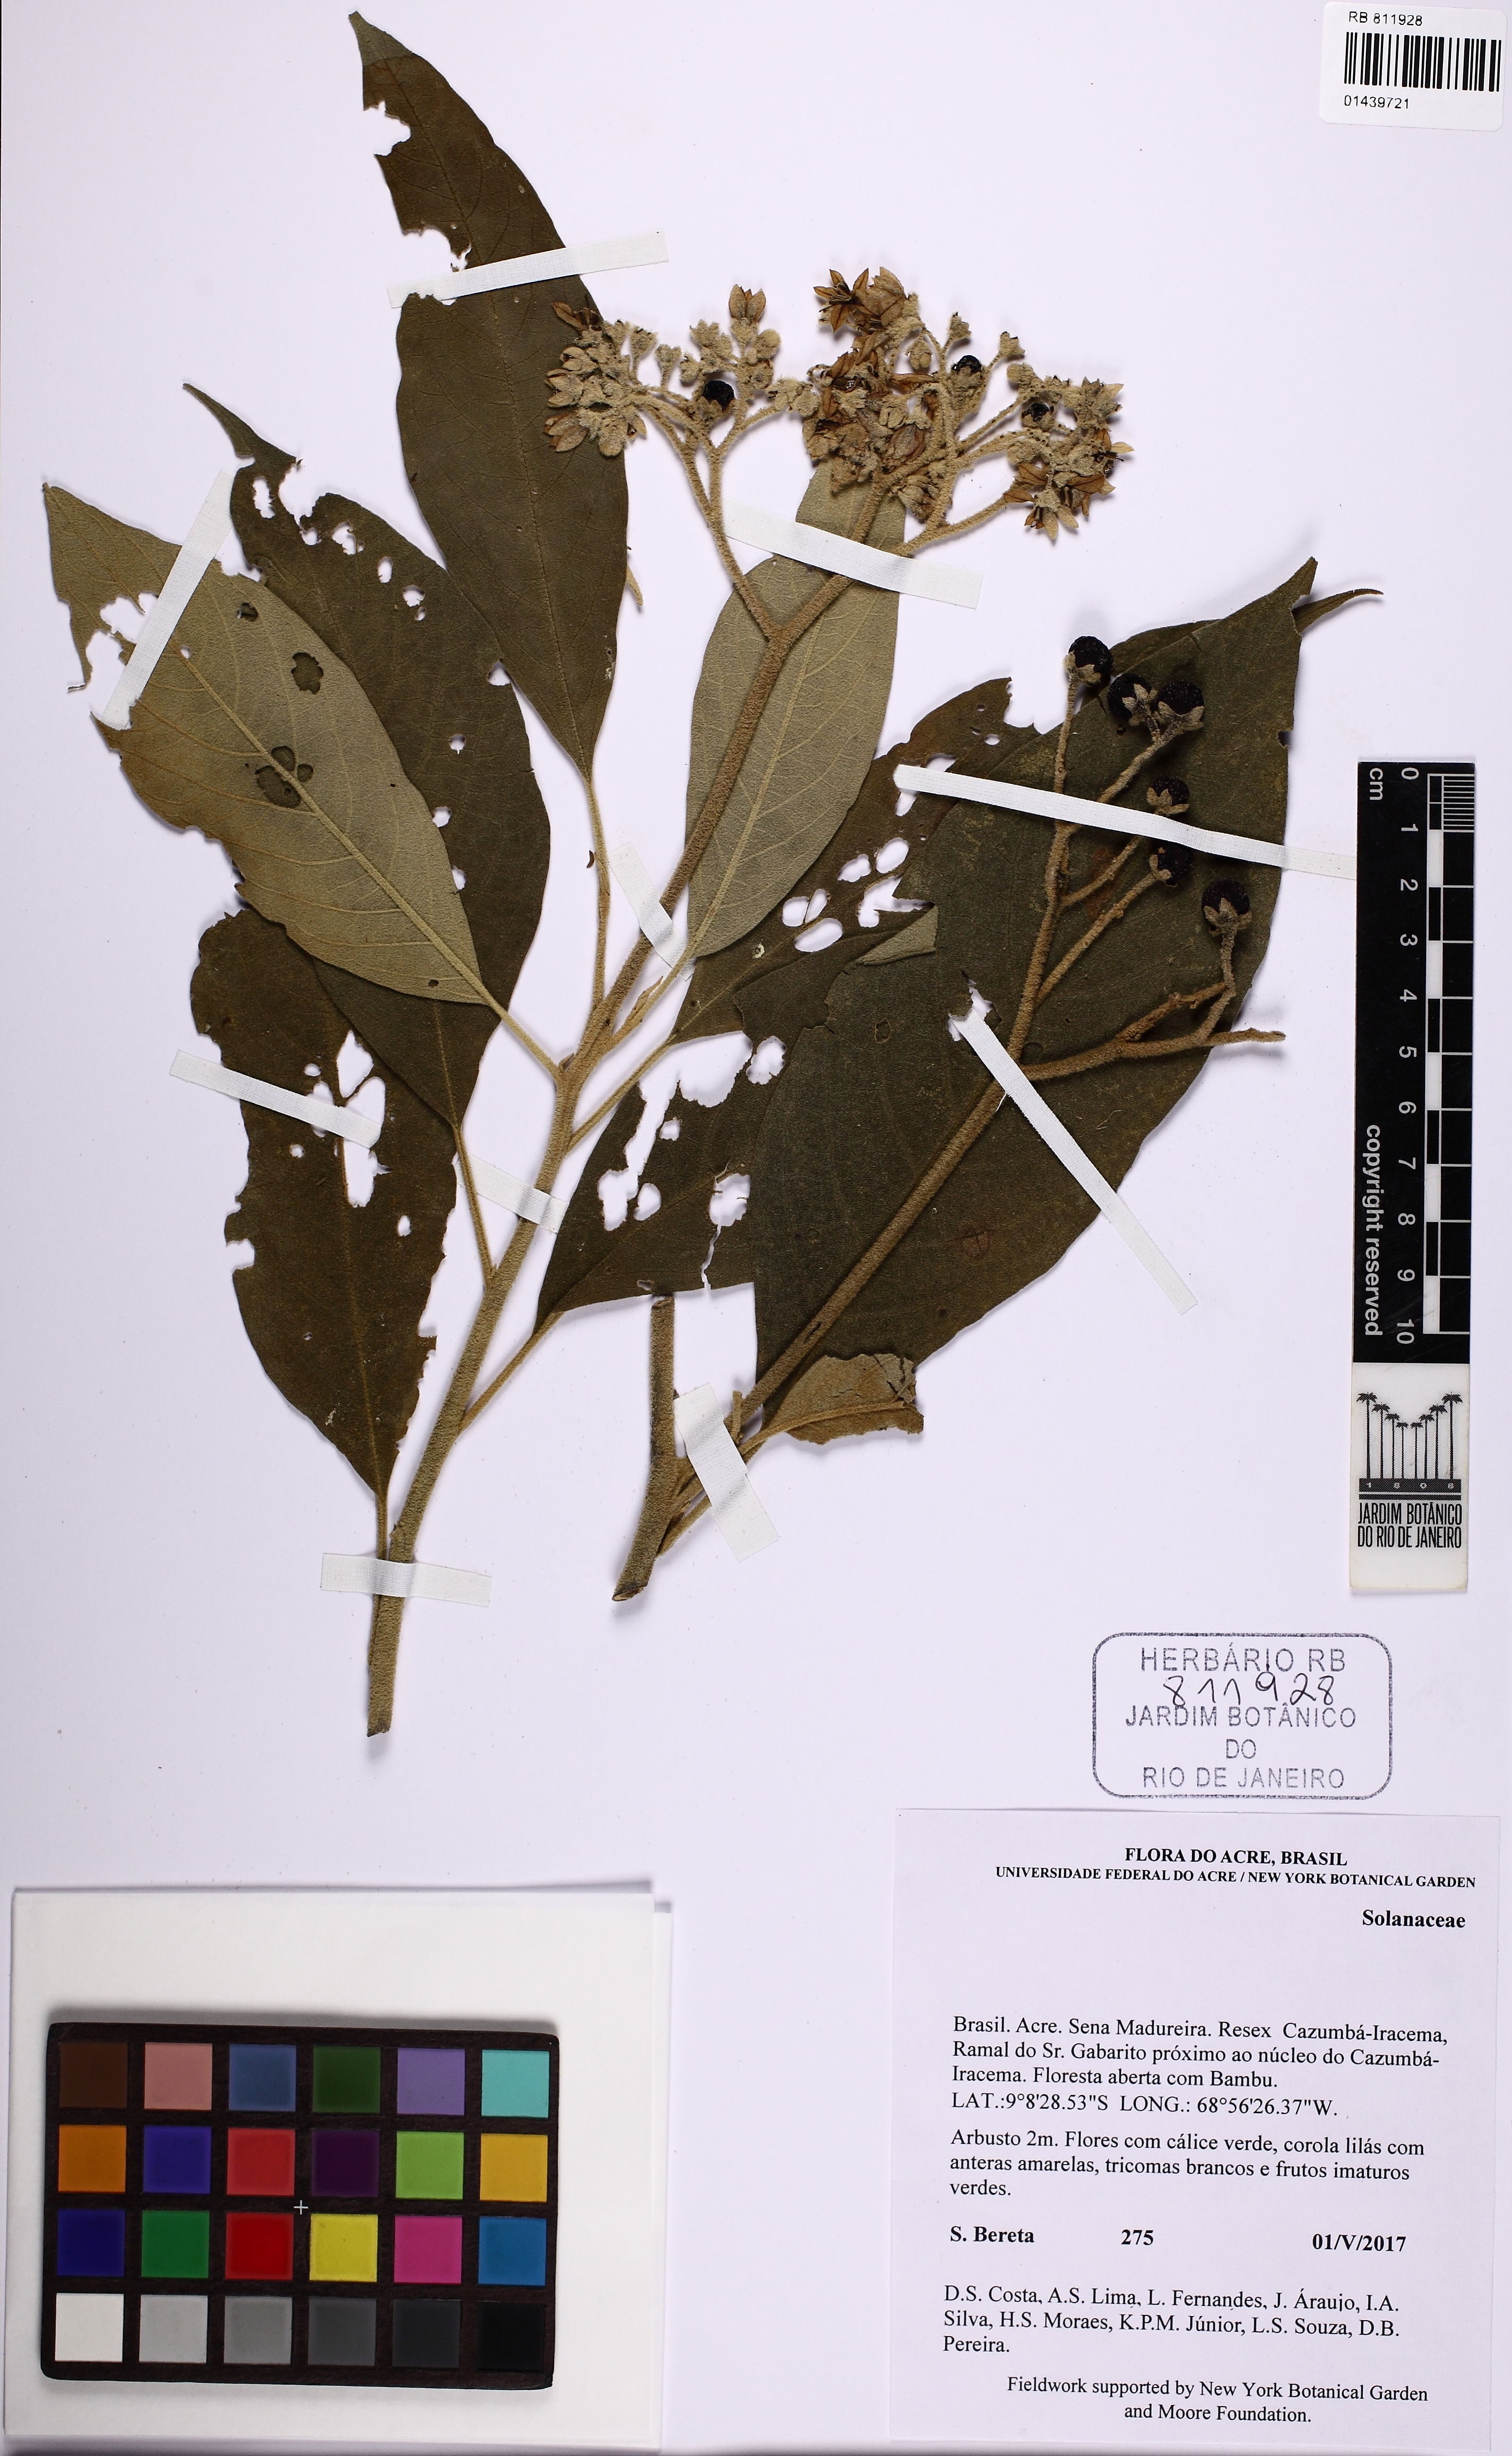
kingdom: Plantae
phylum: Tracheophyta
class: Magnoliopsida
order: Solanales
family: Solanaceae
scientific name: Solanaceae
